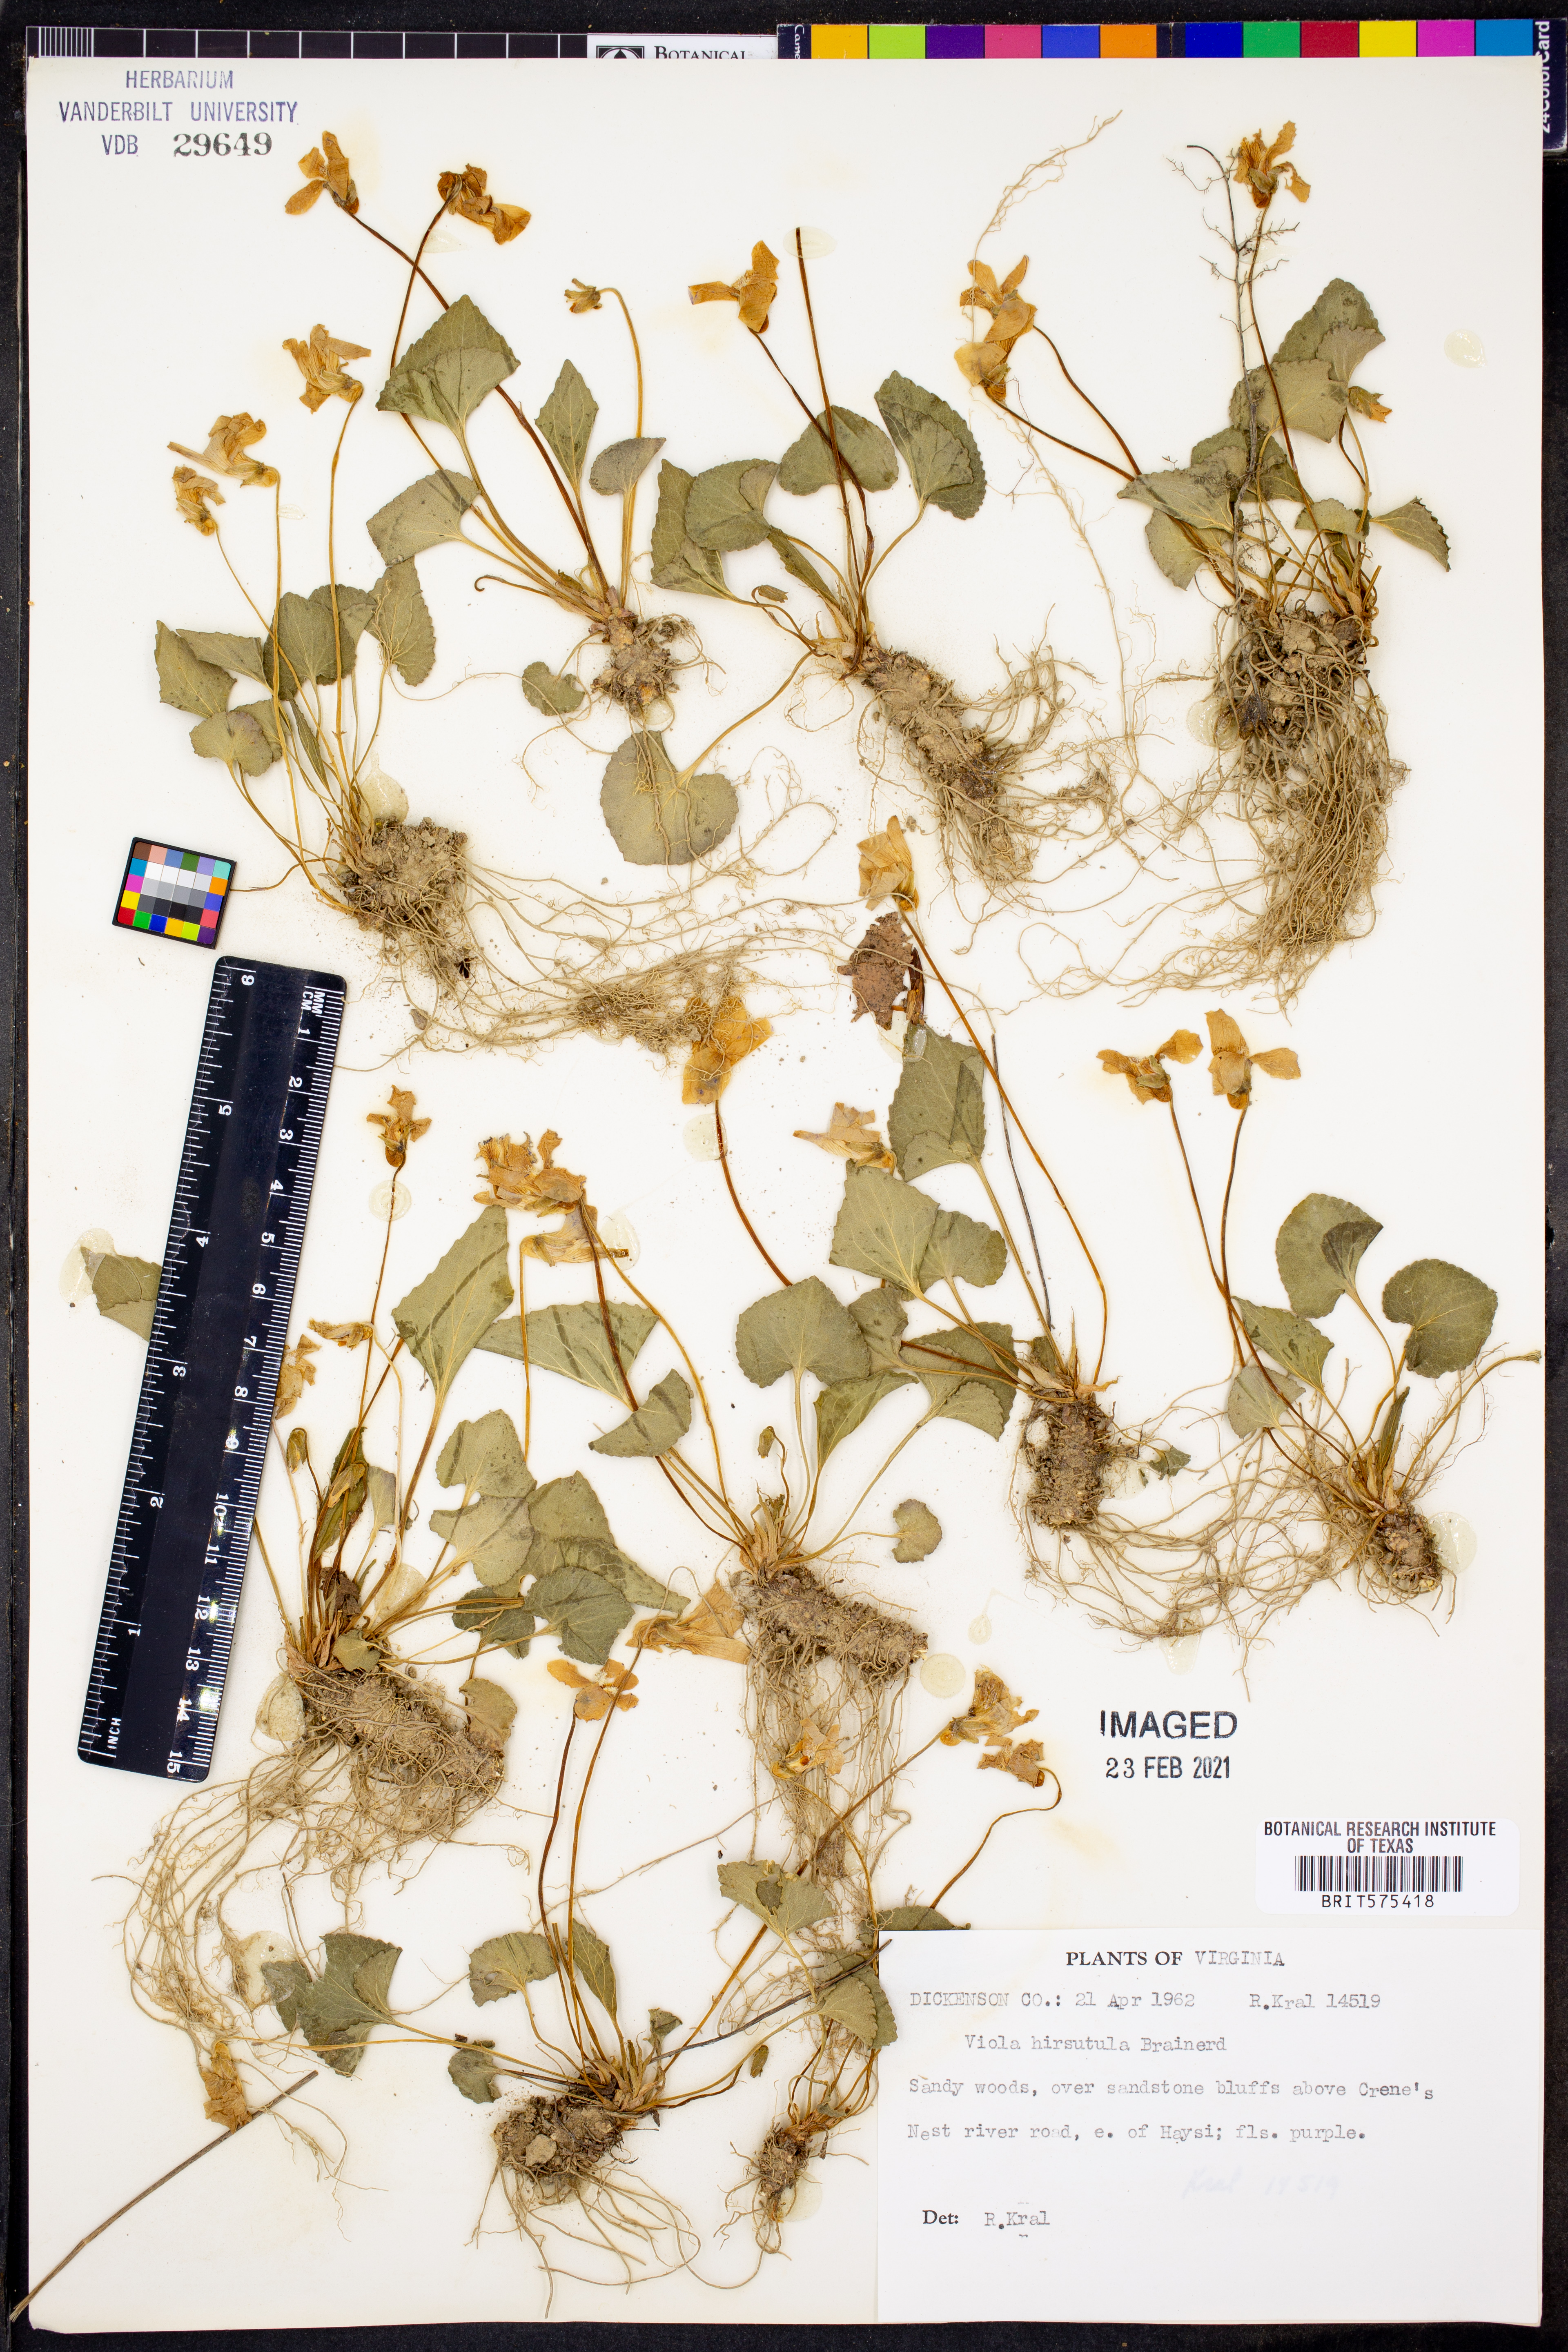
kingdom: Plantae
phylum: Tracheophyta
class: Magnoliopsida
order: Malpighiales
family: Violaceae
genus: Viola
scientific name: Viola hirsutula
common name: Southern wood violet
